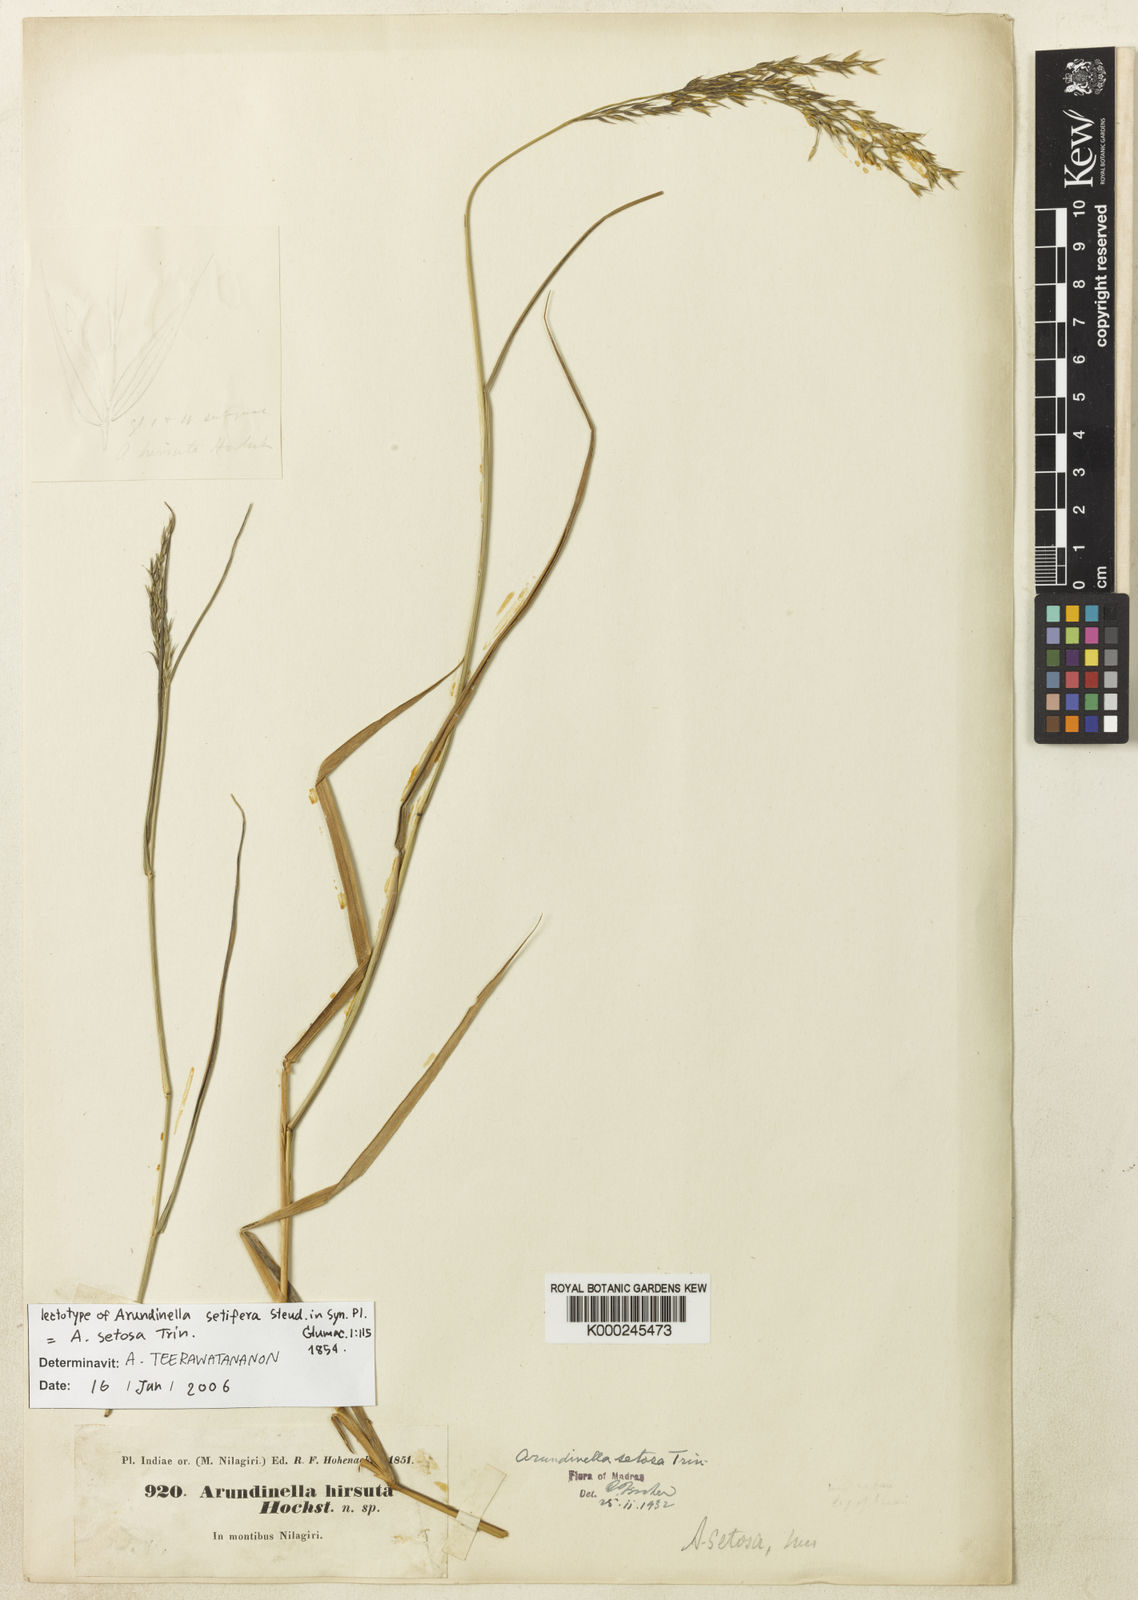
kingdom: Plantae
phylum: Tracheophyta
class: Liliopsida
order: Poales
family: Poaceae
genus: Arundinella
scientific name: Arundinella setosa
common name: Reed grass
